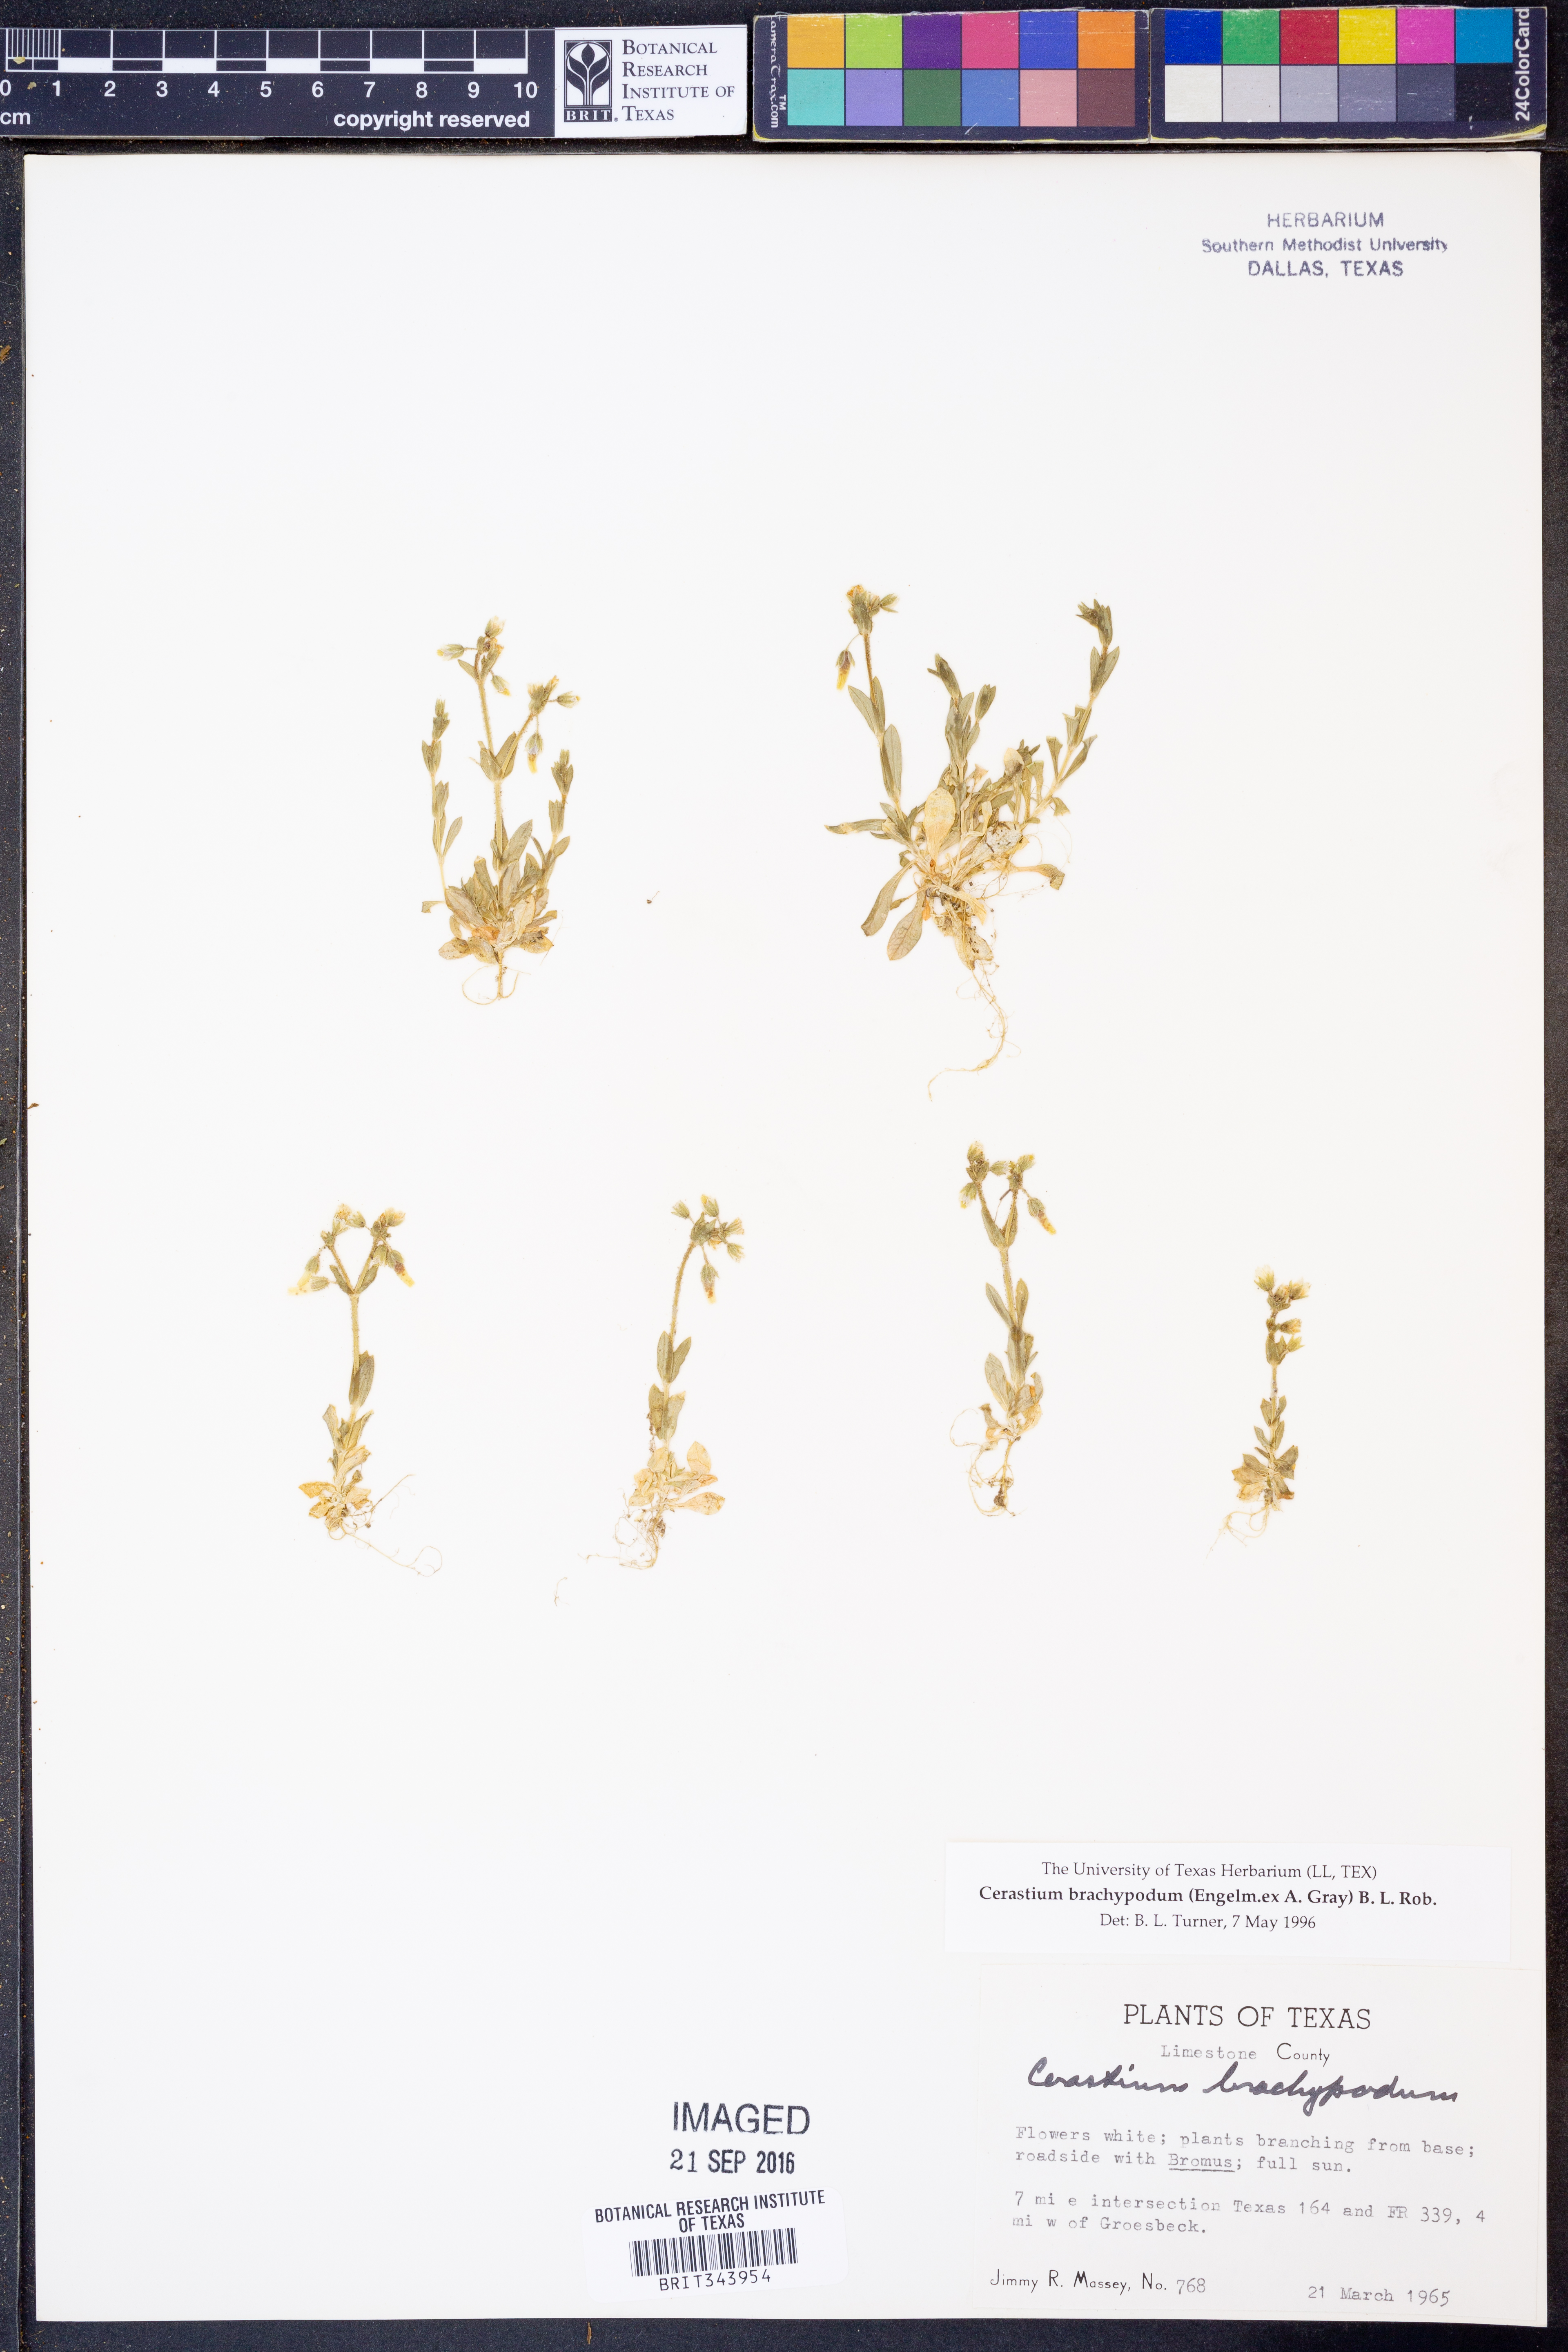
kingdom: Plantae
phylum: Tracheophyta
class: Magnoliopsida
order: Caryophyllales
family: Caryophyllaceae
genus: Cerastium
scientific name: Cerastium brachypodum
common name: Short-pedicelled nodding chickweed
